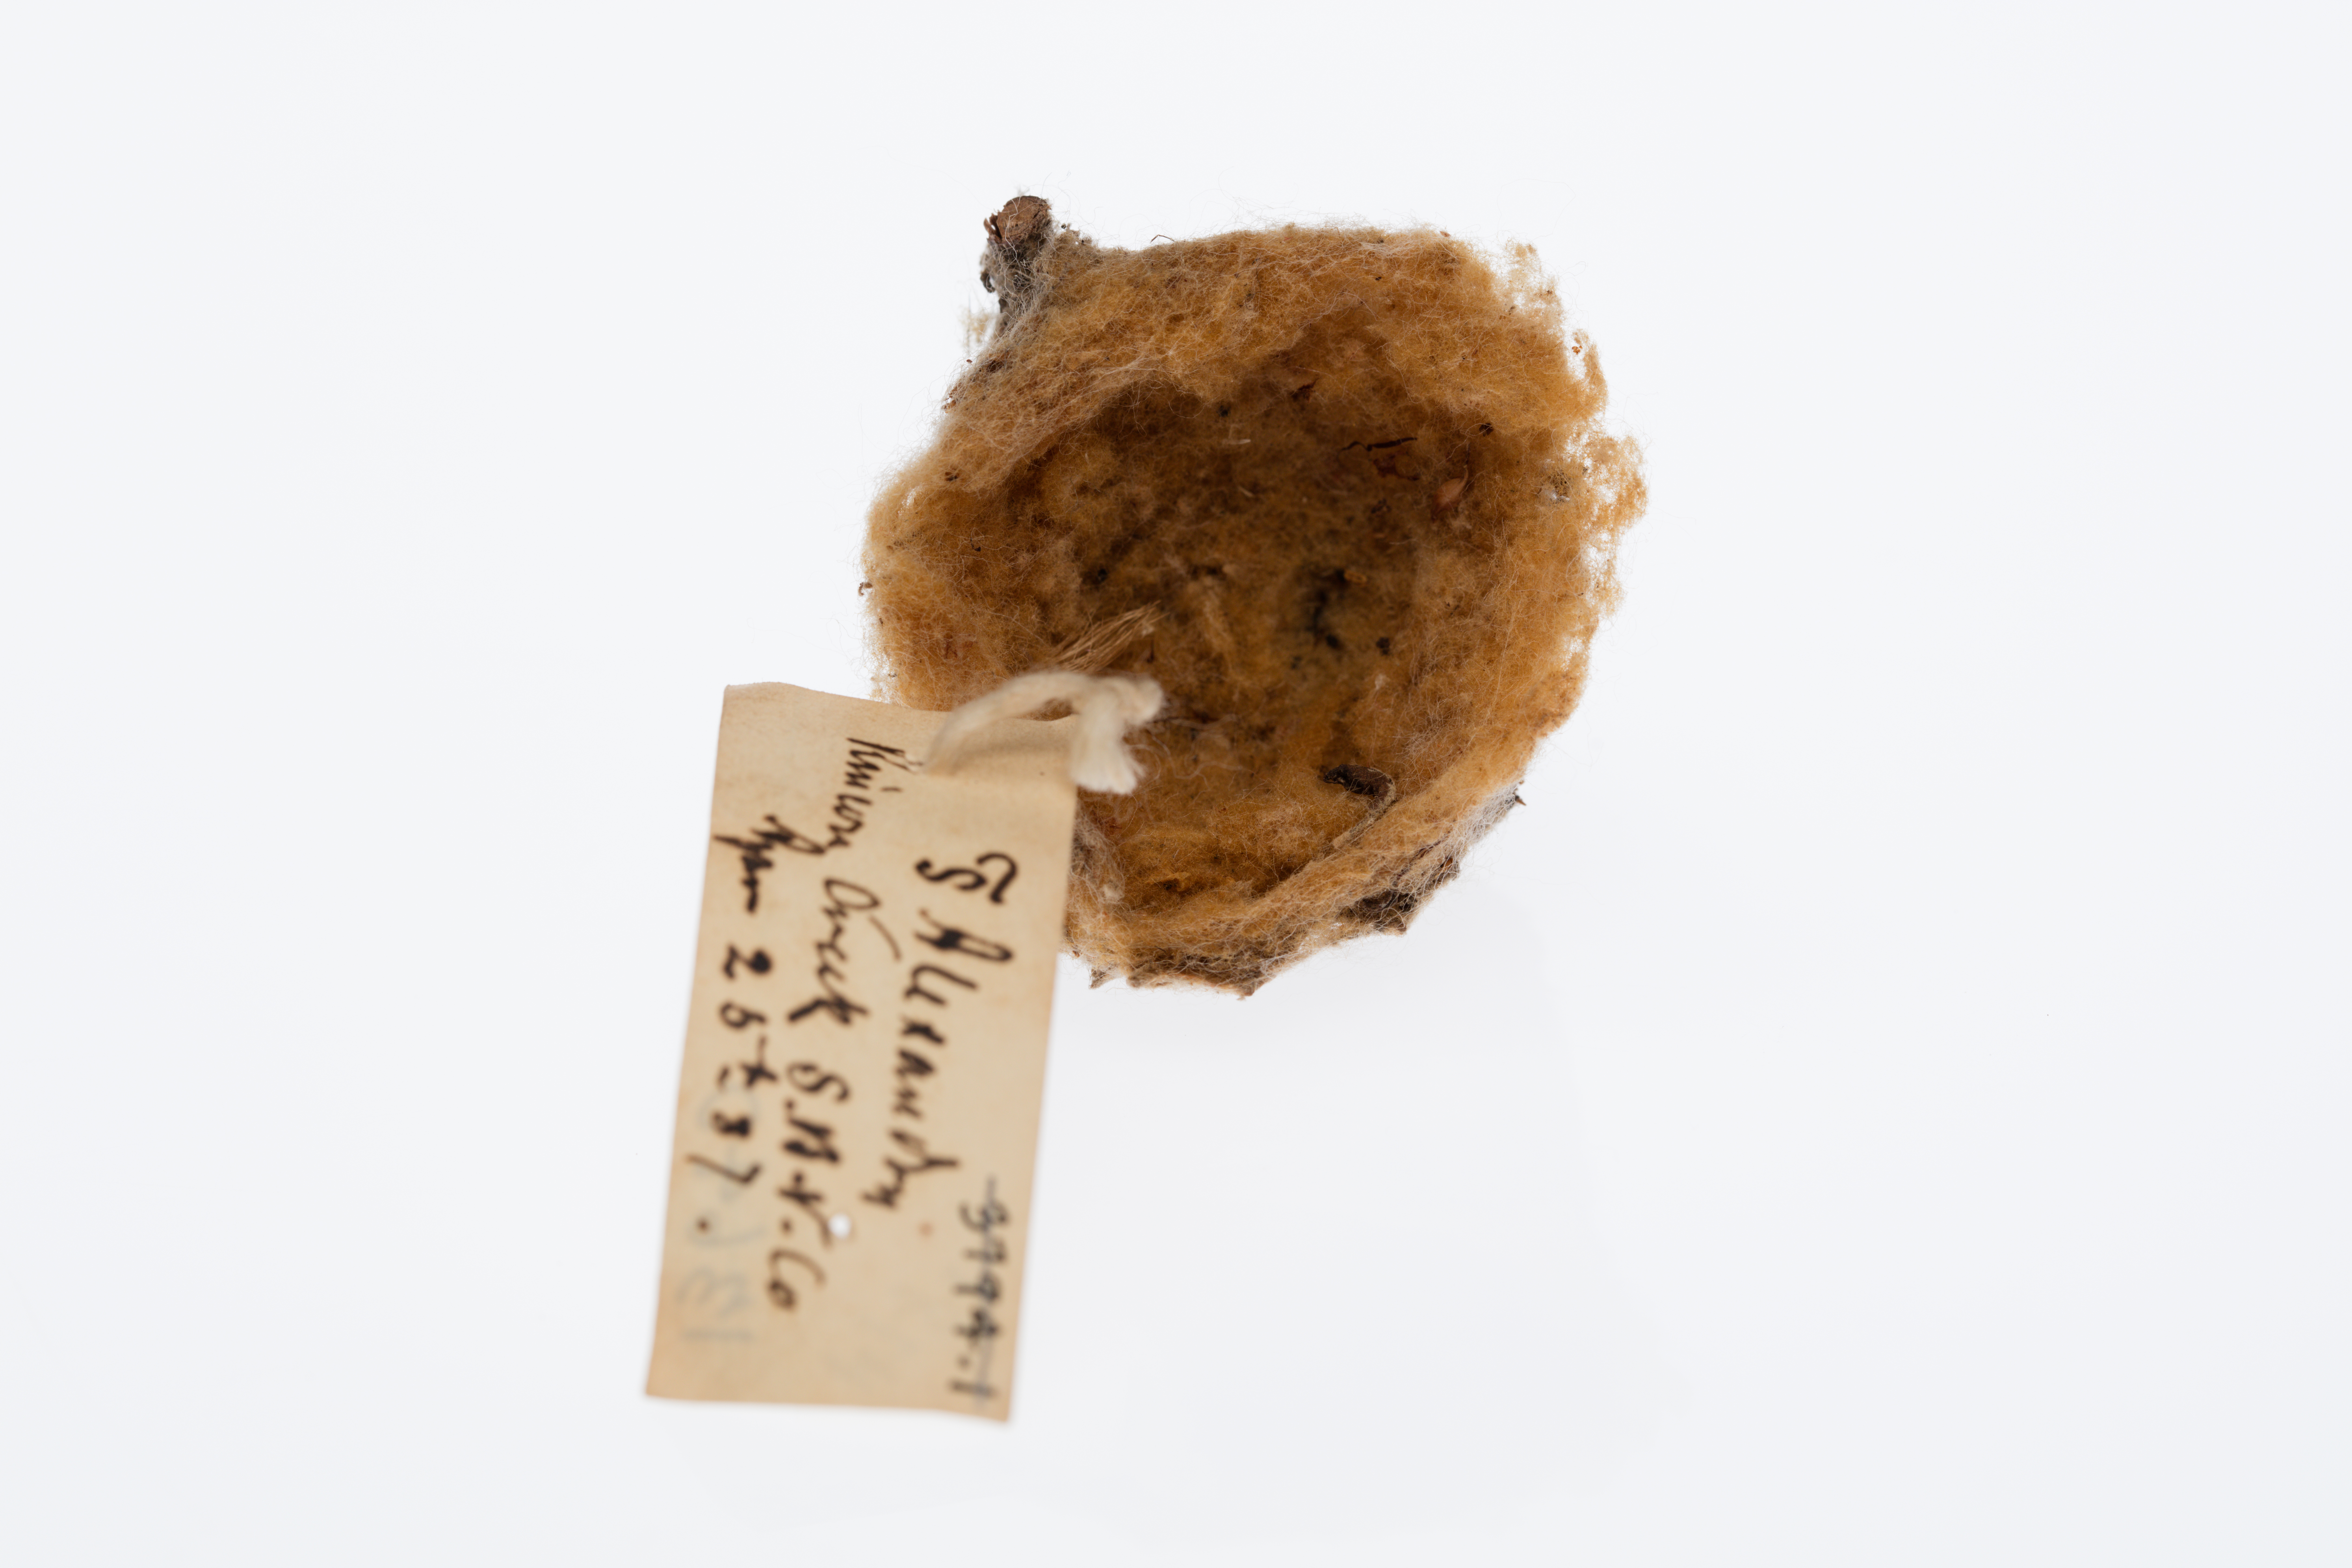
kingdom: Animalia
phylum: Chordata
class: Aves
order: Apodiformes
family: Trochilidae
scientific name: Trochilidae
